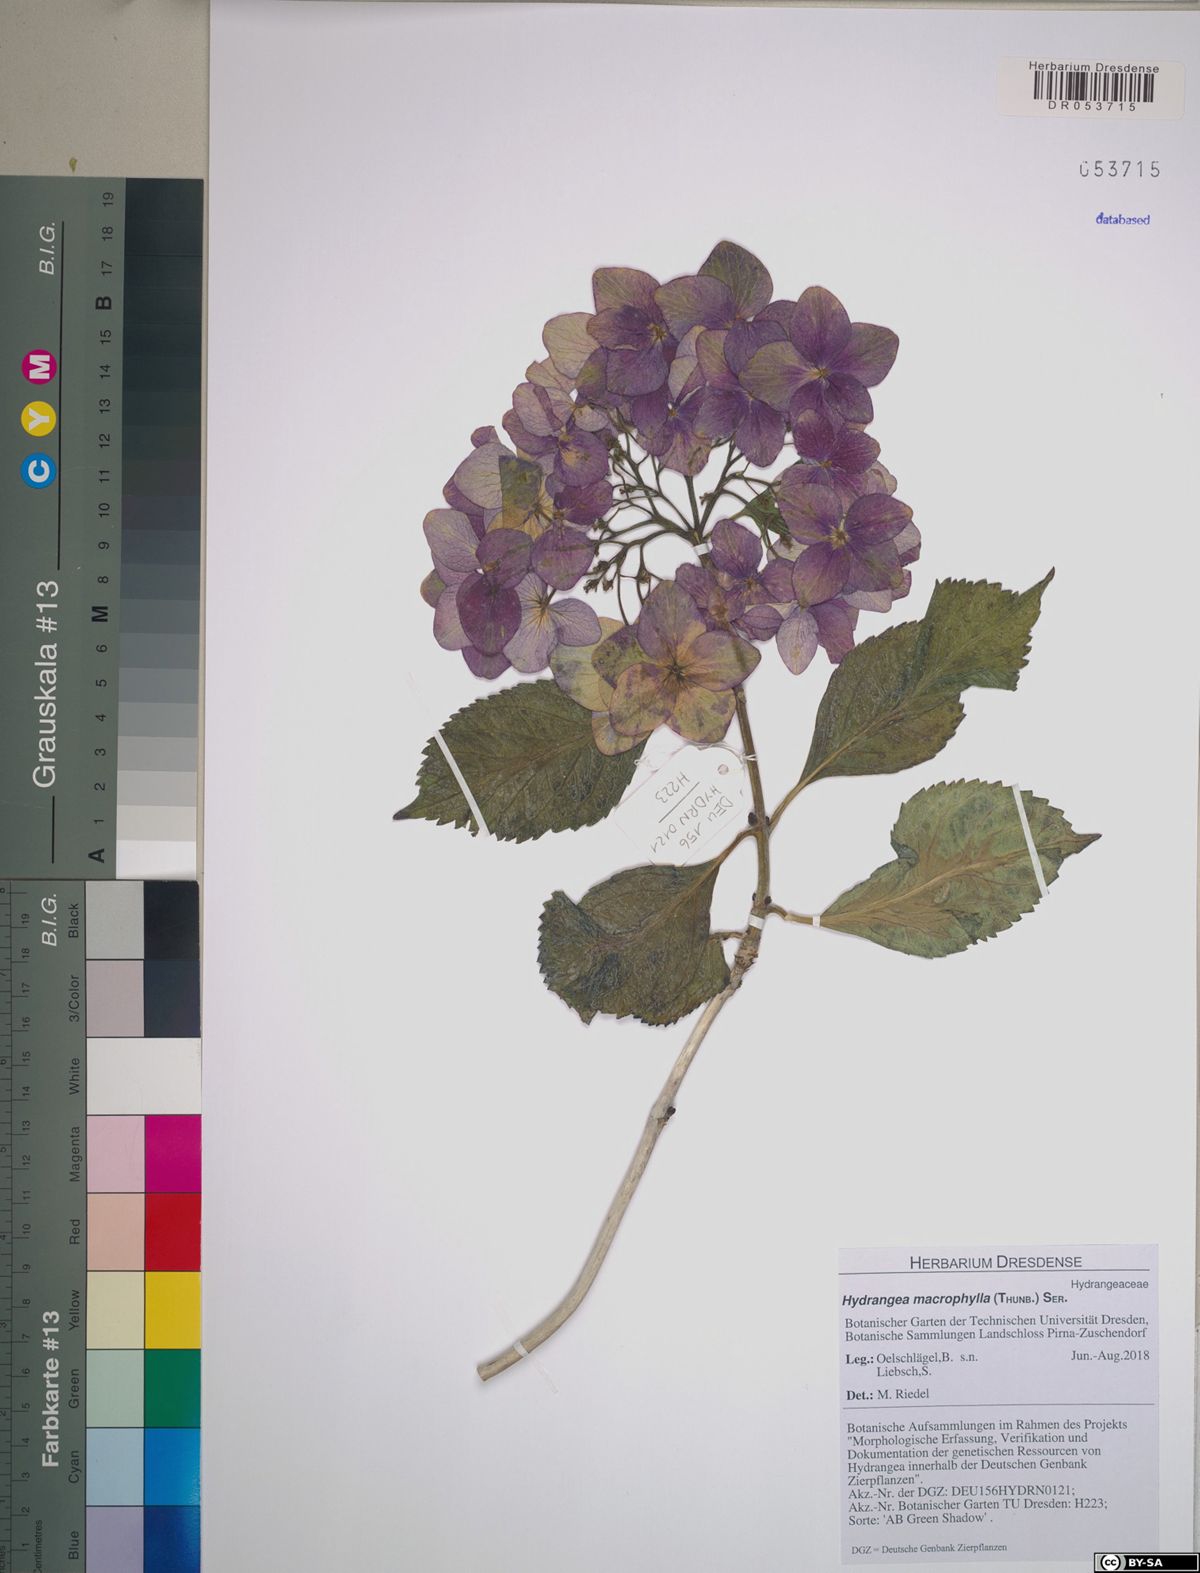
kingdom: Plantae
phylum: Tracheophyta
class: Magnoliopsida
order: Cornales
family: Hydrangeaceae
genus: Hydrangea
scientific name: Hydrangea macrophylla
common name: Hydrangea
